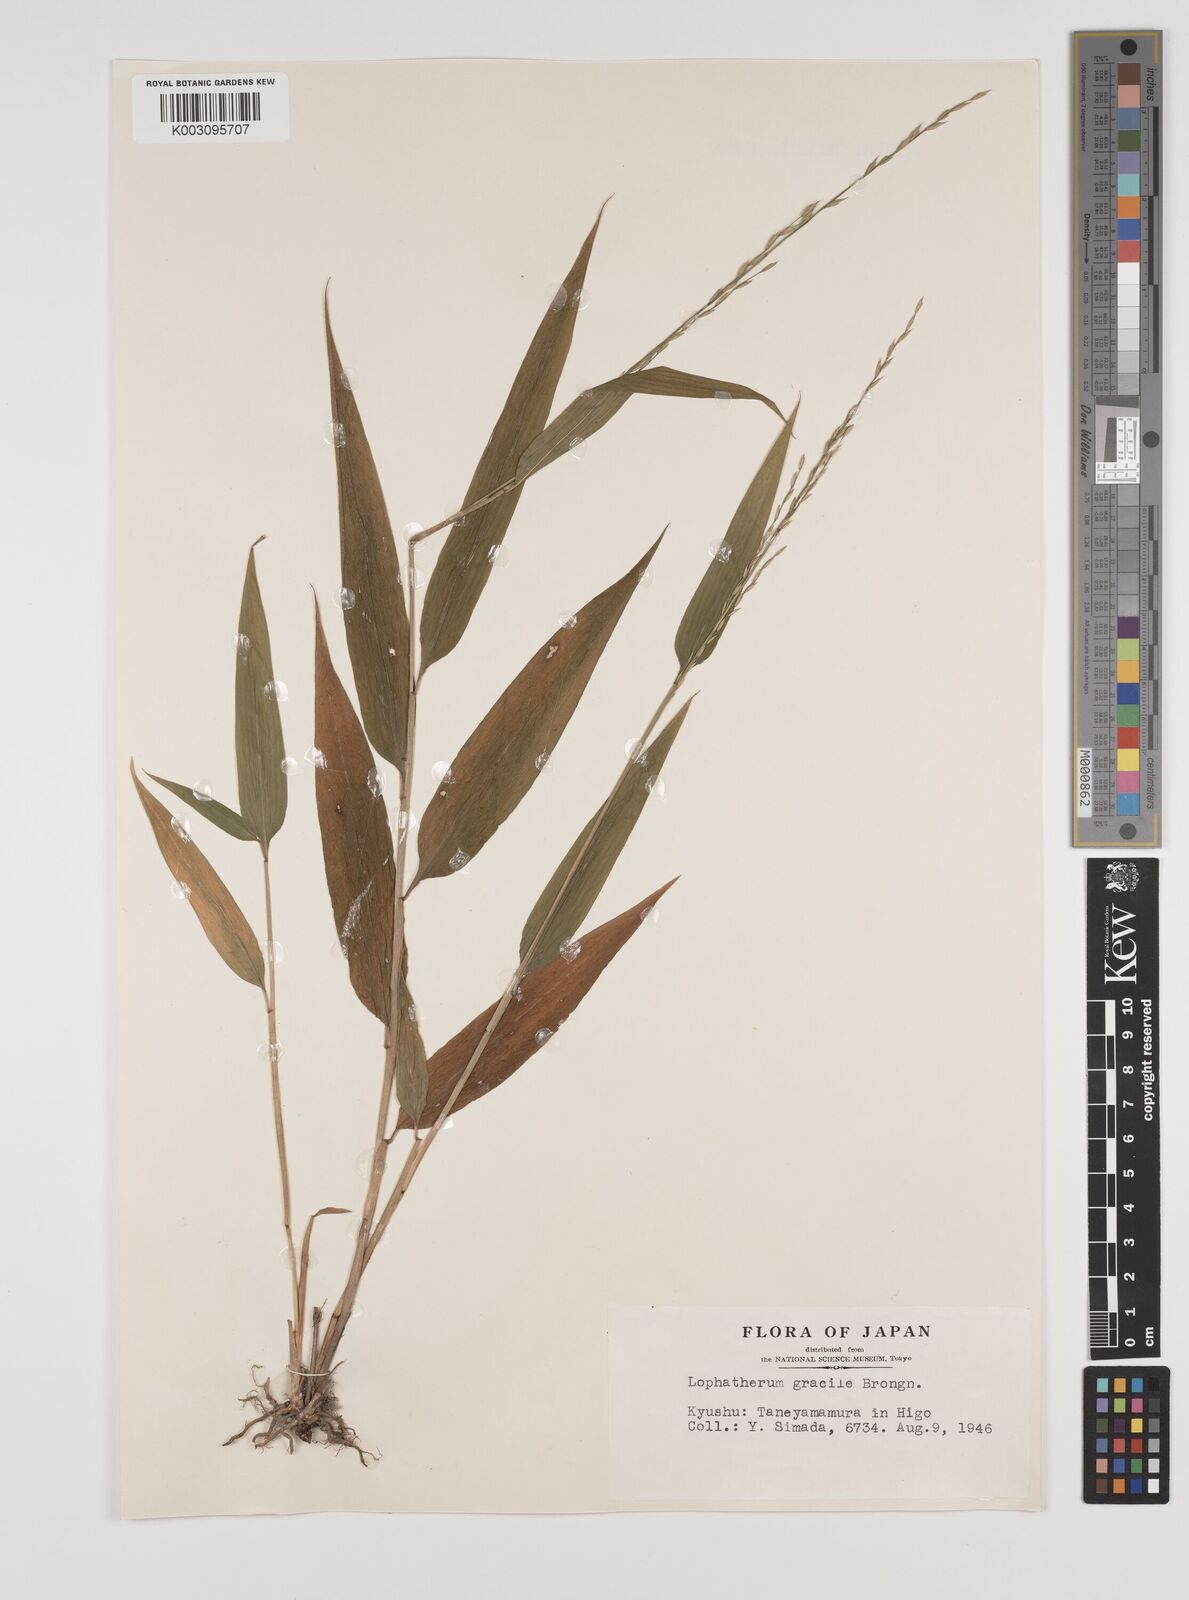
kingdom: Plantae
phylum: Tracheophyta
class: Liliopsida
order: Poales
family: Poaceae
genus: Lophatherum
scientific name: Lophatherum gracile
